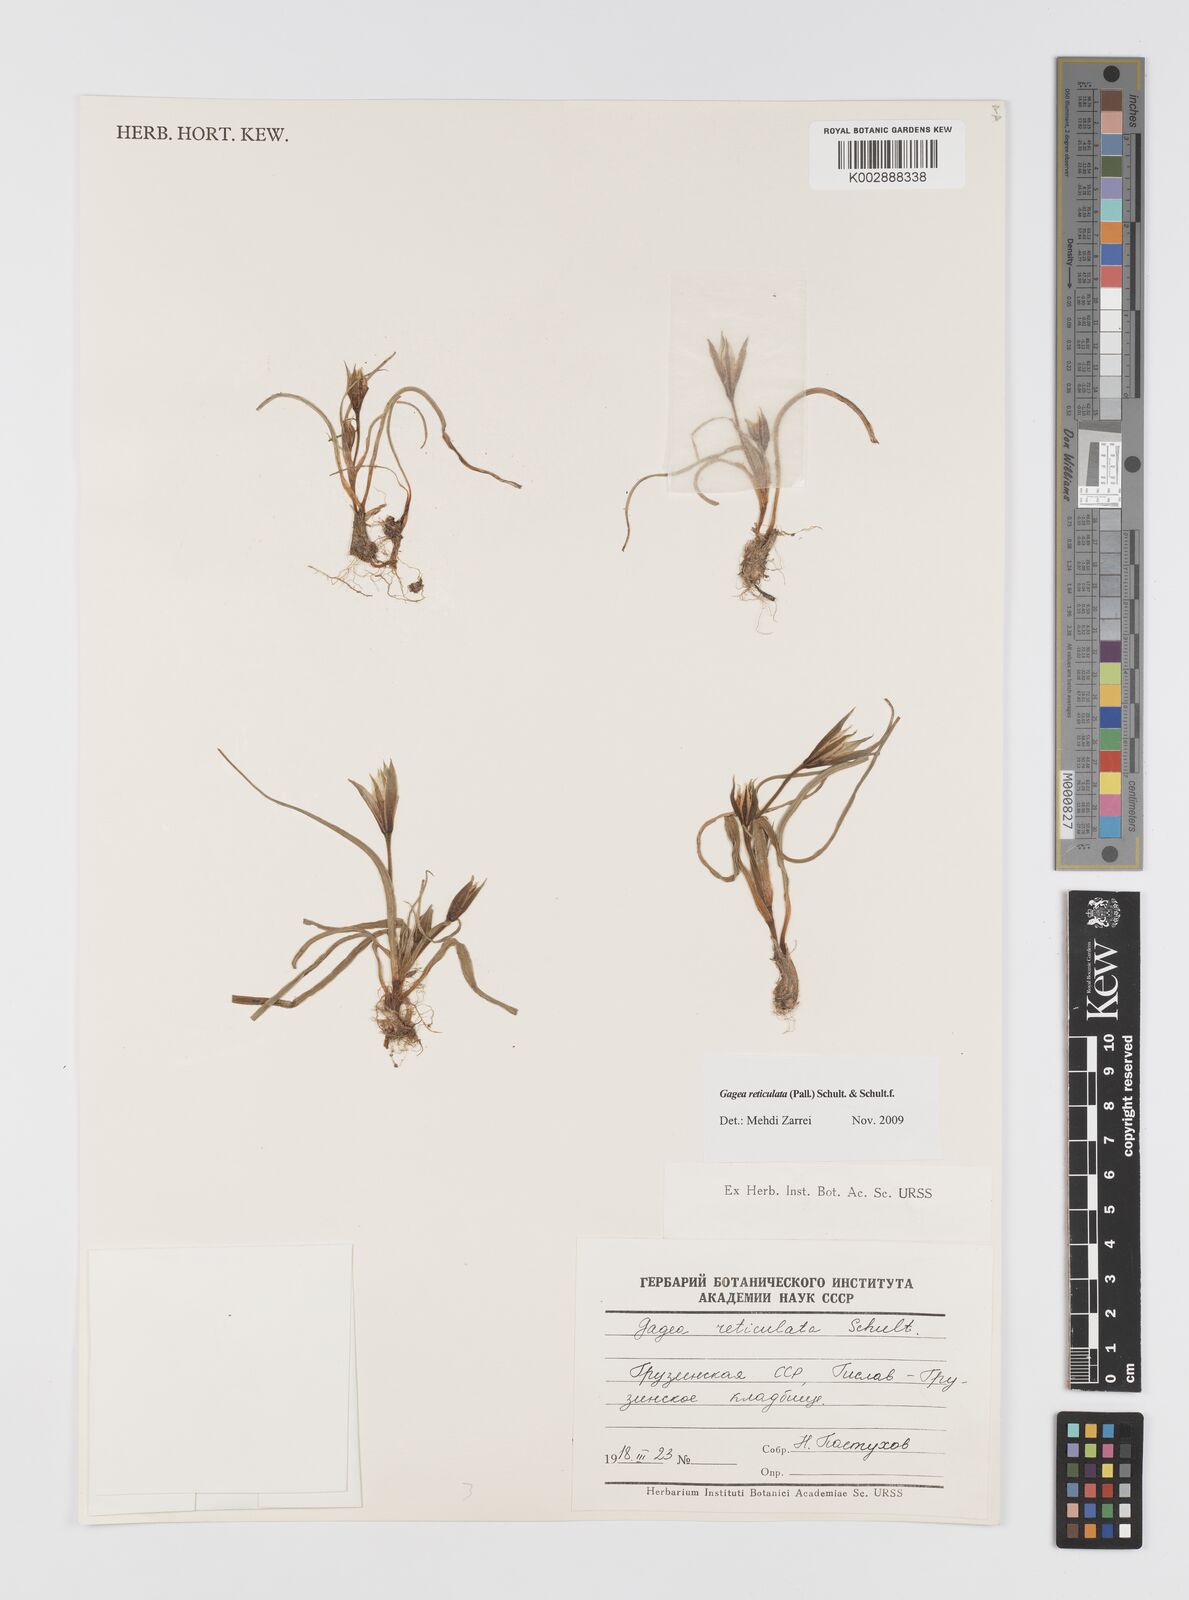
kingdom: Plantae
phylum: Tracheophyta
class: Liliopsida
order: Liliales
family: Liliaceae
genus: Gagea
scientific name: Gagea reticulata
